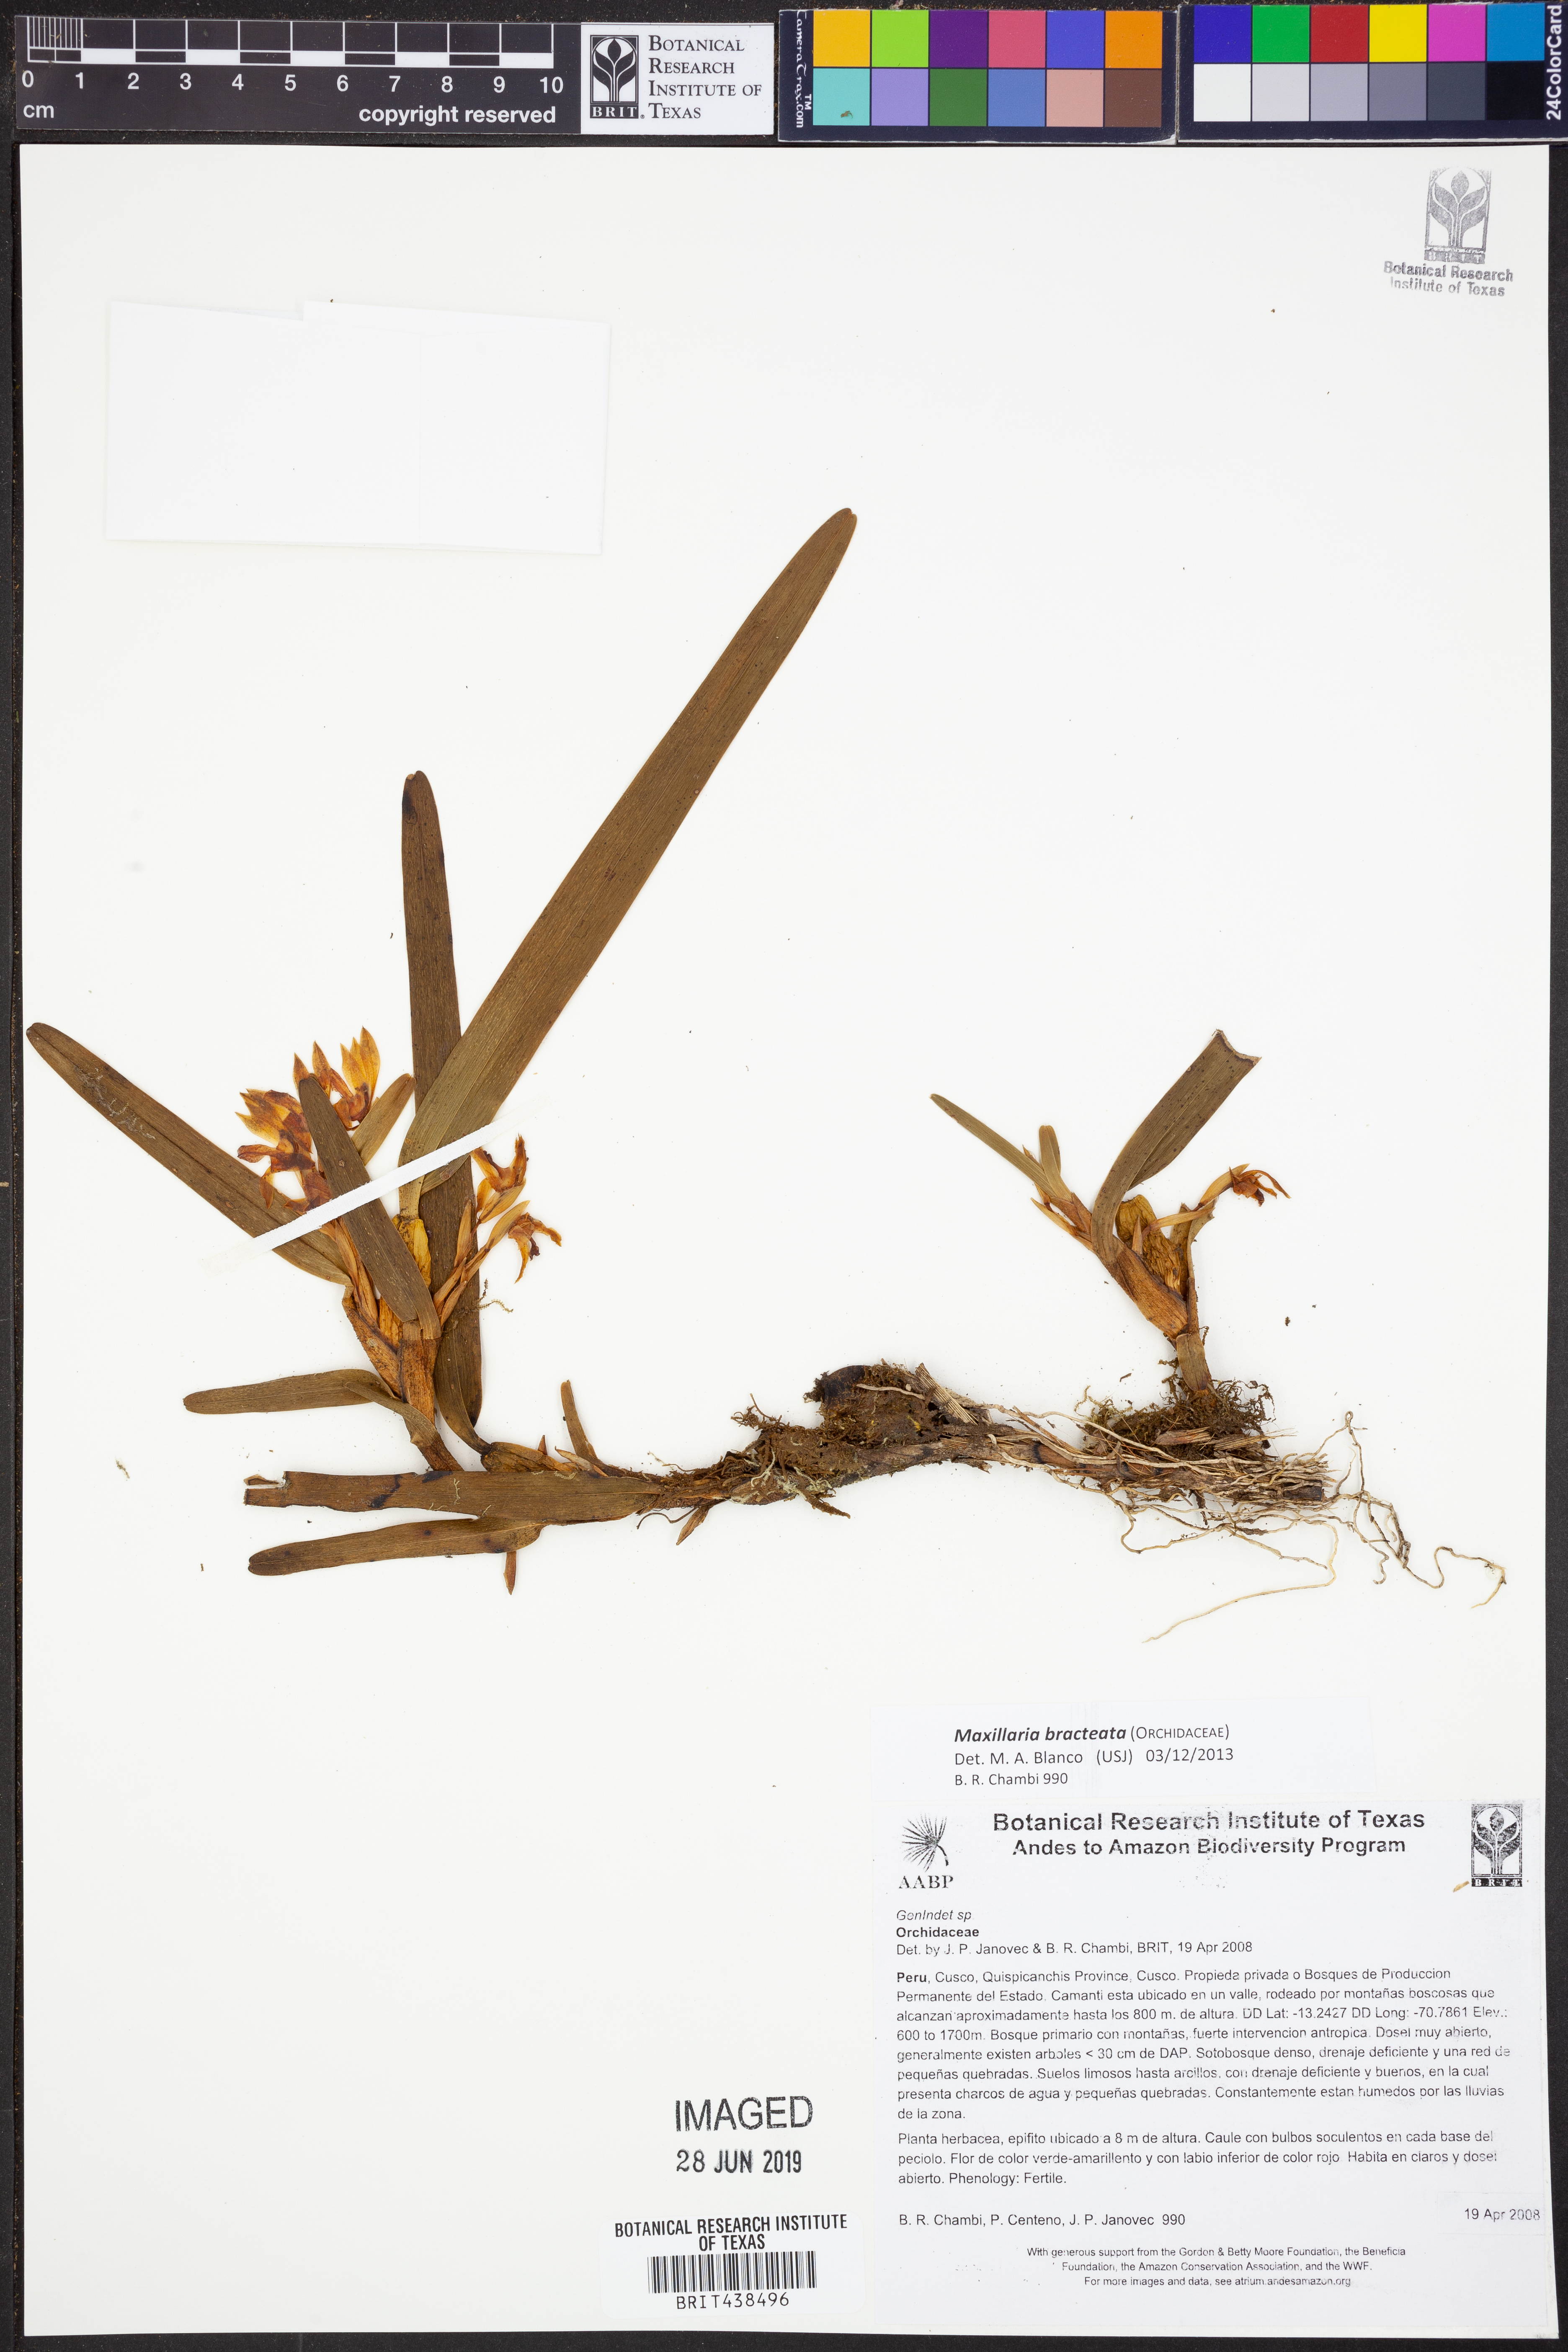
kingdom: Plantae
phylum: Tracheophyta
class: Liliopsida
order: Asparagales
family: Orchidaceae
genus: Maxillaria
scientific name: Maxillaria bracteata
